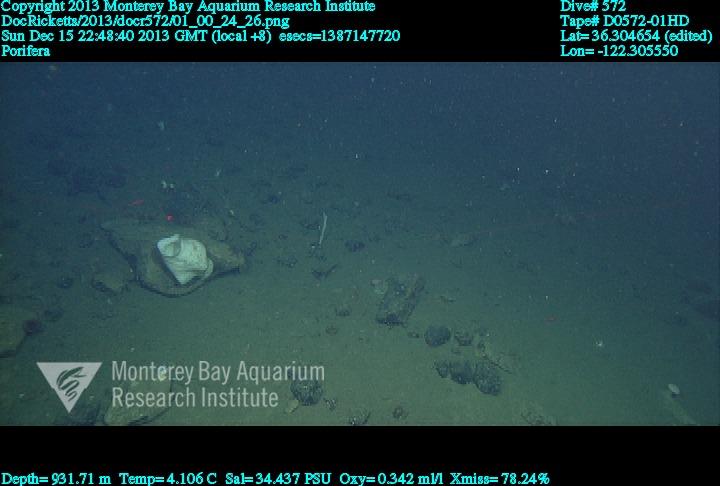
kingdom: Animalia
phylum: Porifera
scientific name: Porifera
